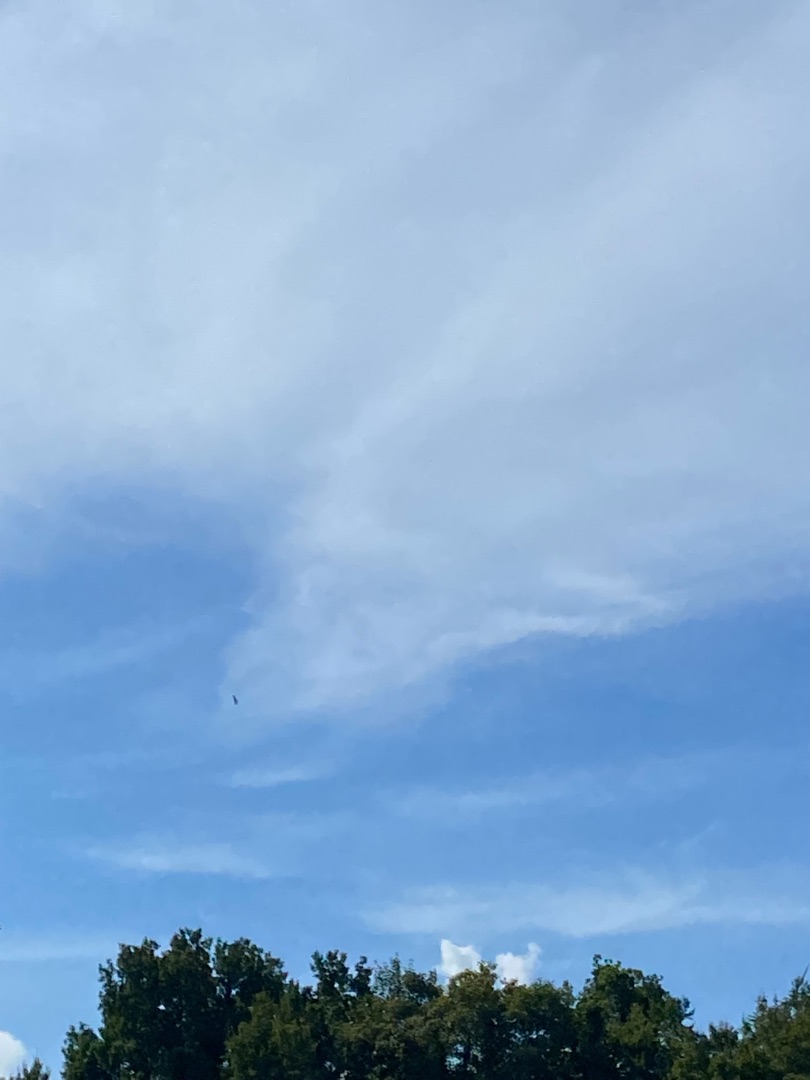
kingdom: Animalia
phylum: Chordata
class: Aves
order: Accipitriformes
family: Accipitridae
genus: Haliaeetus
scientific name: Haliaeetus albicilla
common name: Havørn
